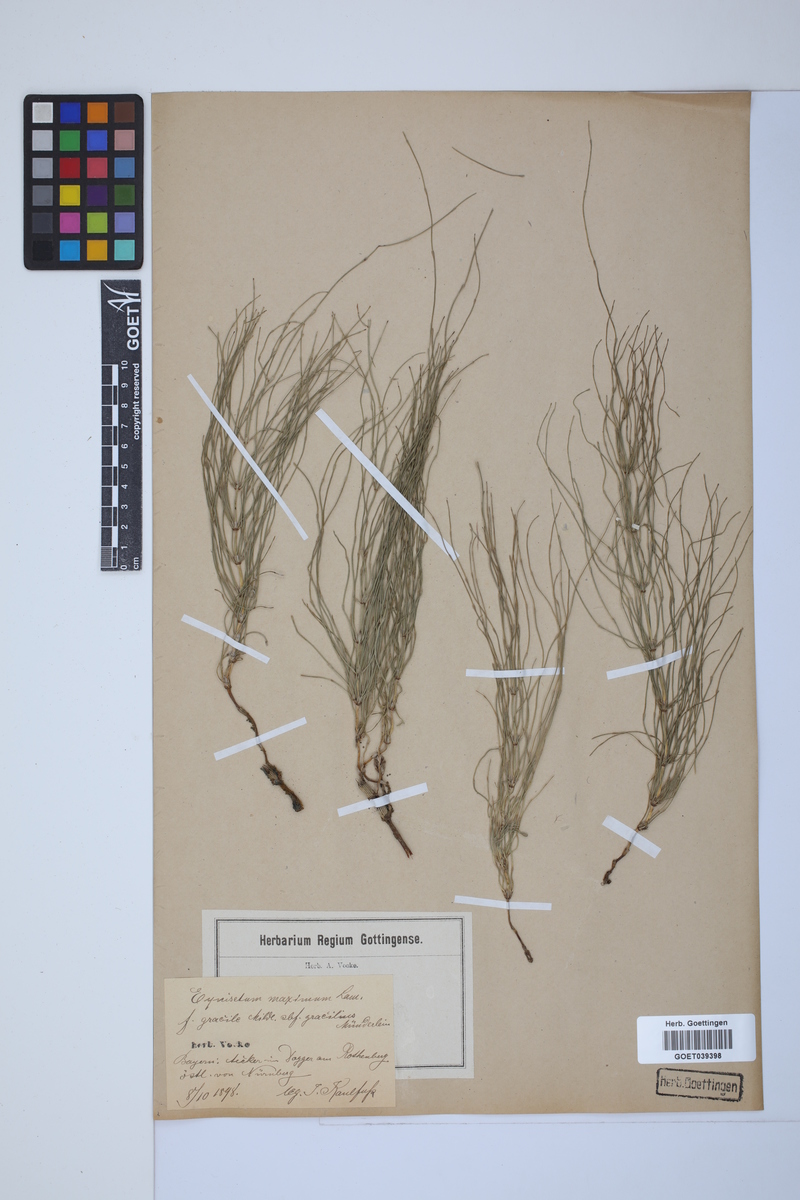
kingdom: Plantae
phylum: Tracheophyta
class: Polypodiopsida
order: Equisetales
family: Equisetaceae
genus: Equisetum
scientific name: Equisetum telmateia
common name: Great horsetail
